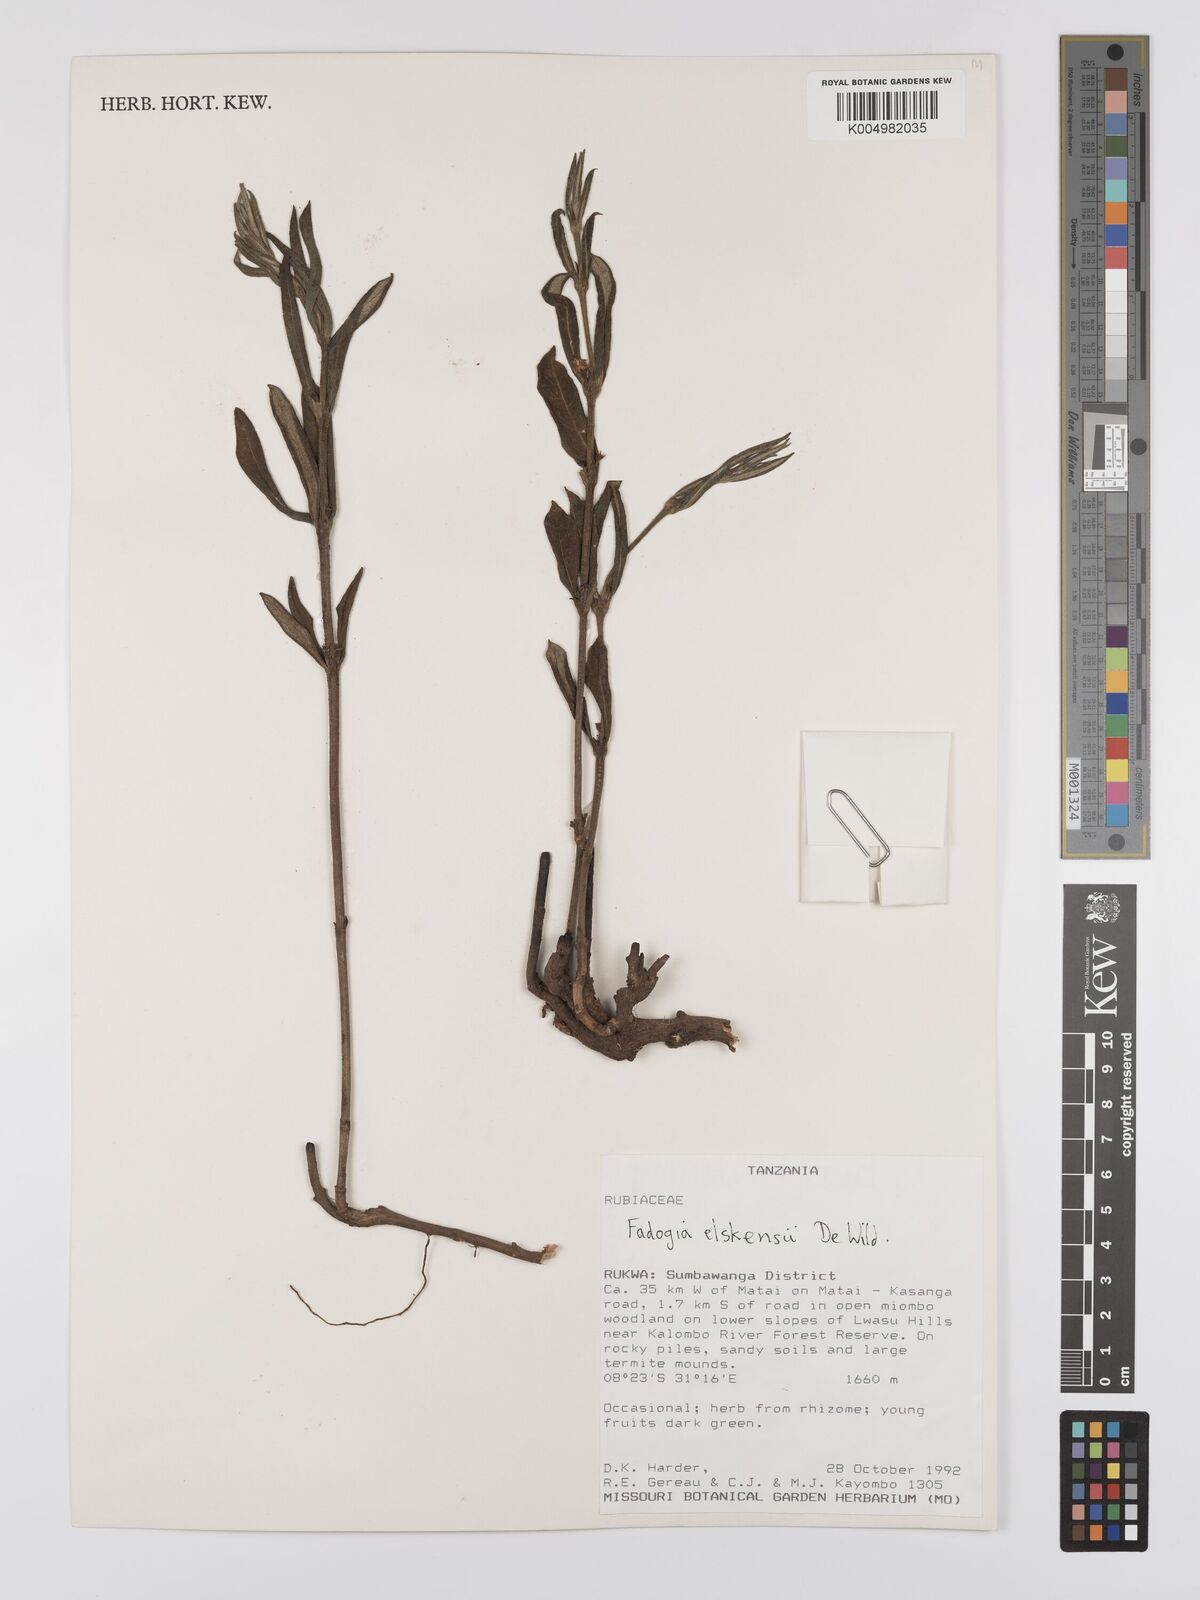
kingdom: Plantae
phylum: Tracheophyta
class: Magnoliopsida
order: Gentianales
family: Rubiaceae
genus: Fadogia
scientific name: Fadogia elskensii
